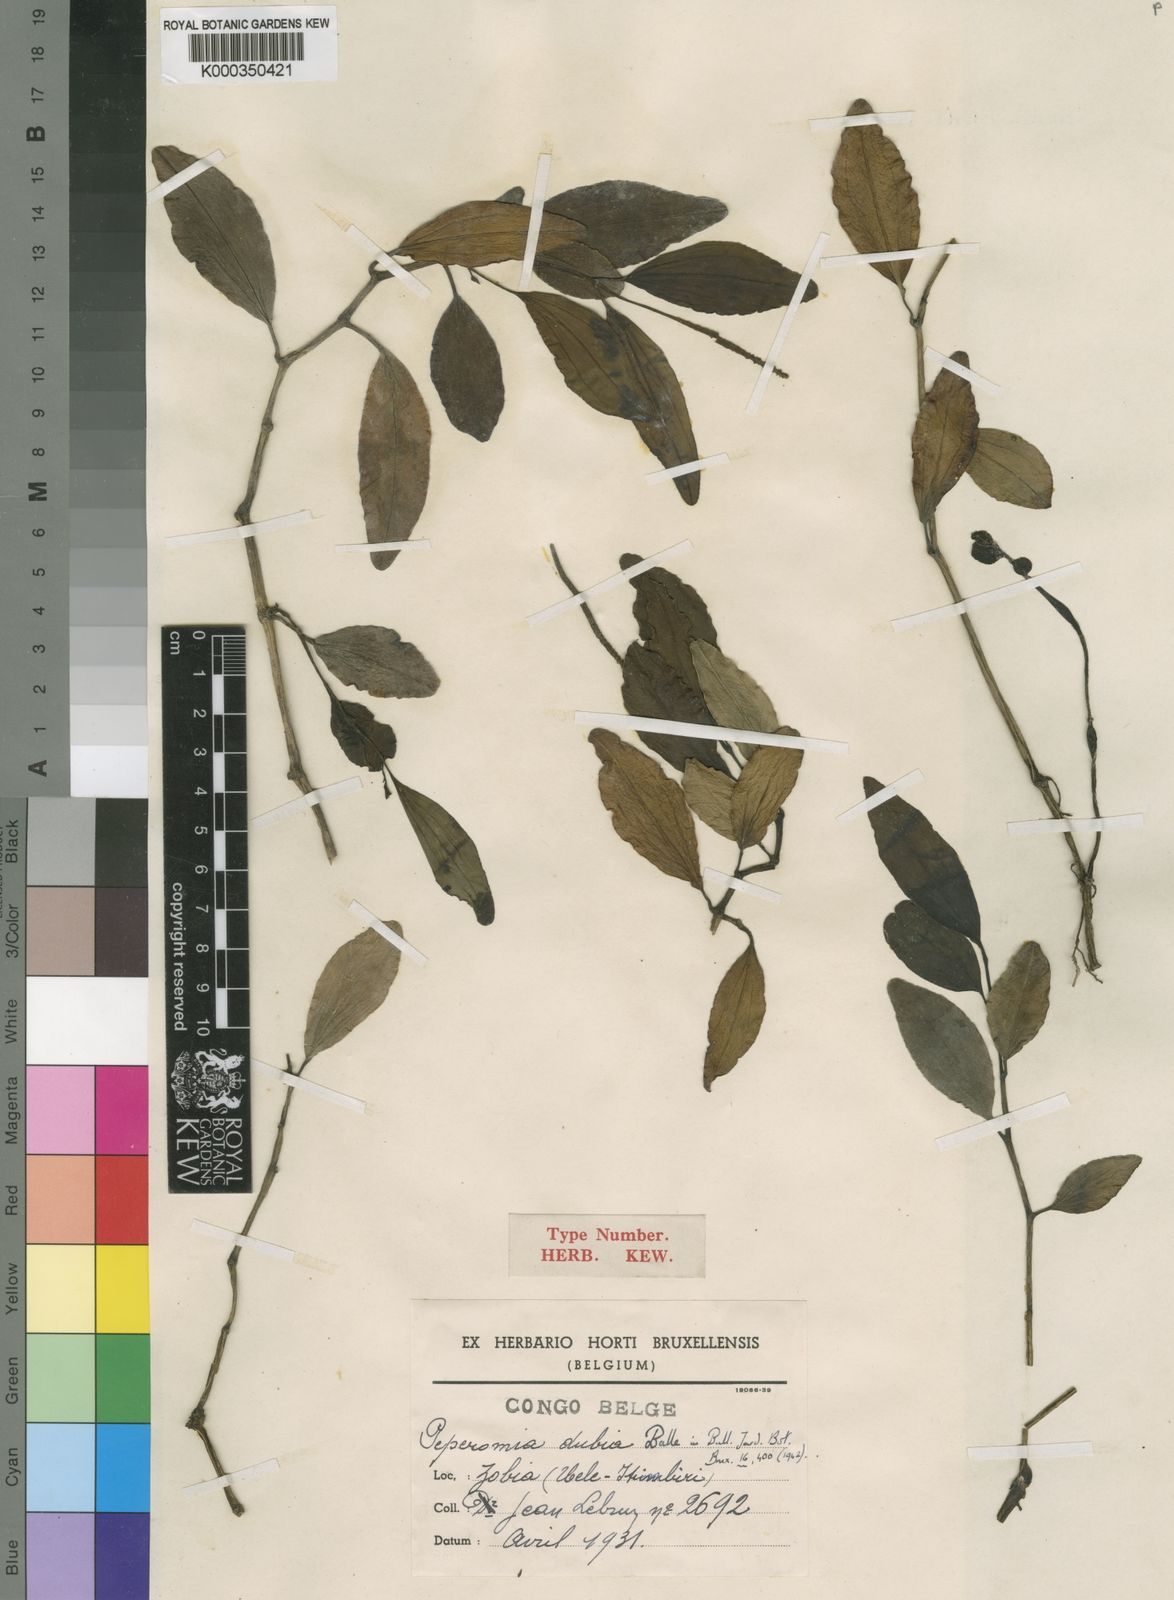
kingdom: Plantae
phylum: Tracheophyta
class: Magnoliopsida
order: Piperales
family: Piperaceae
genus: Peperomia
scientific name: Peperomia dubia
